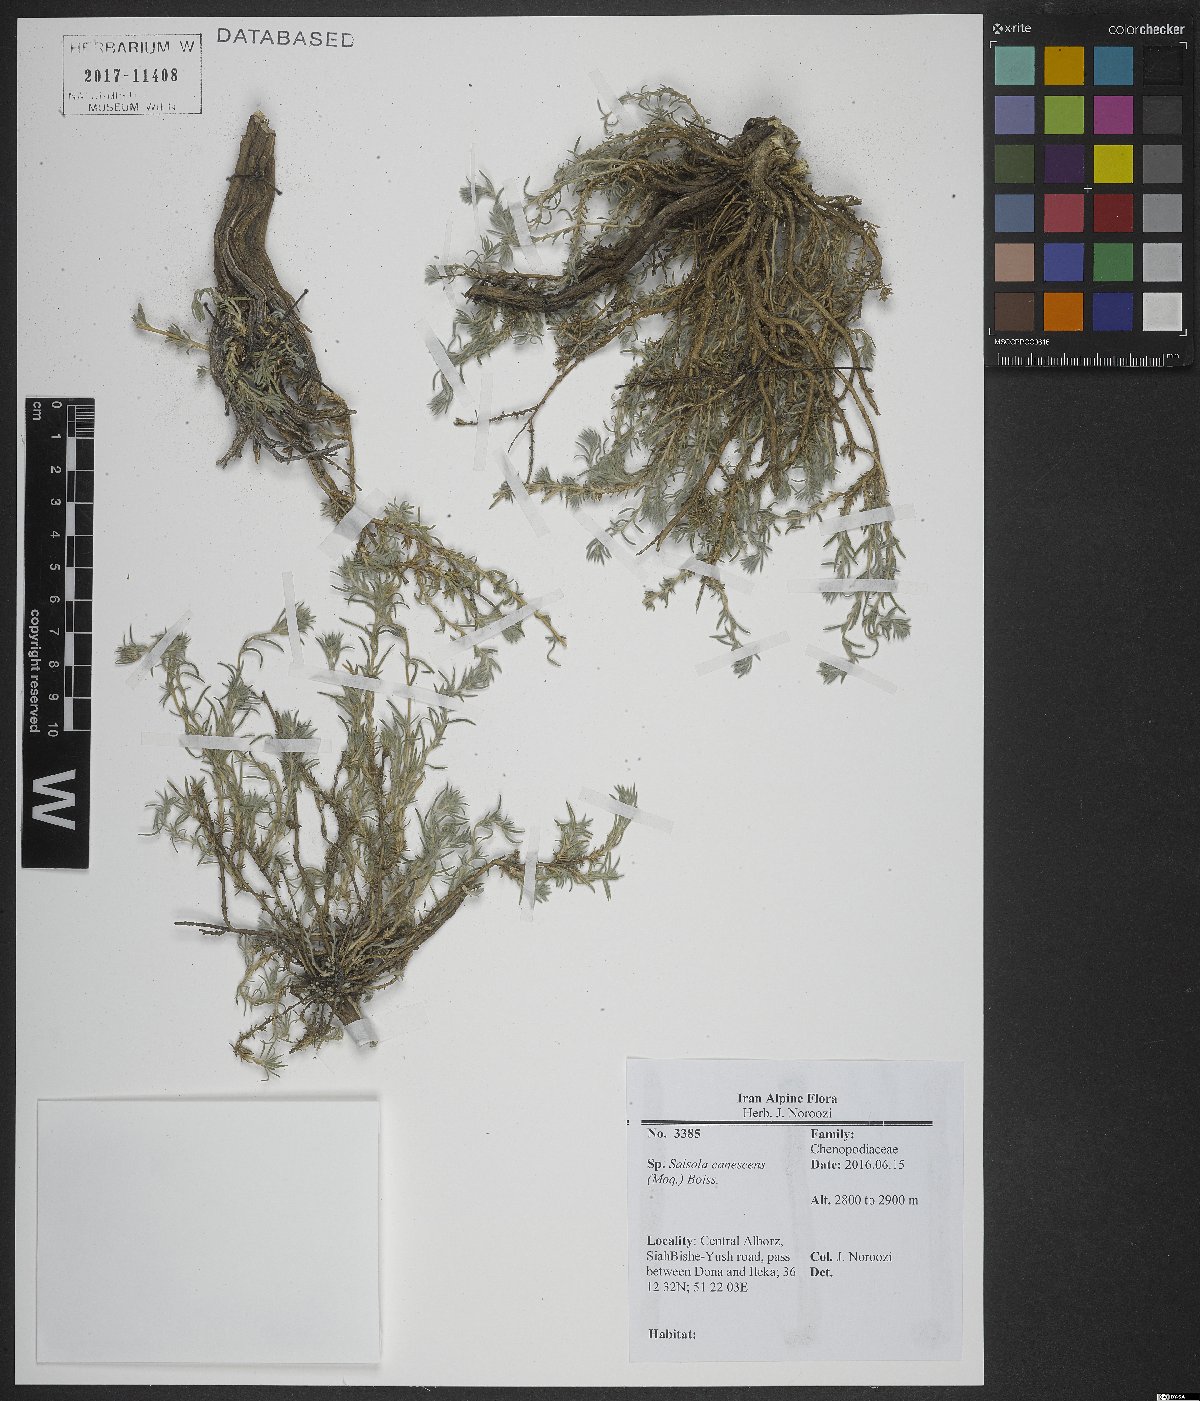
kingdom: Plantae
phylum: Tracheophyta
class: Magnoliopsida
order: Caryophyllales
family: Amaranthaceae
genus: Akhania
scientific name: Akhania canescens
